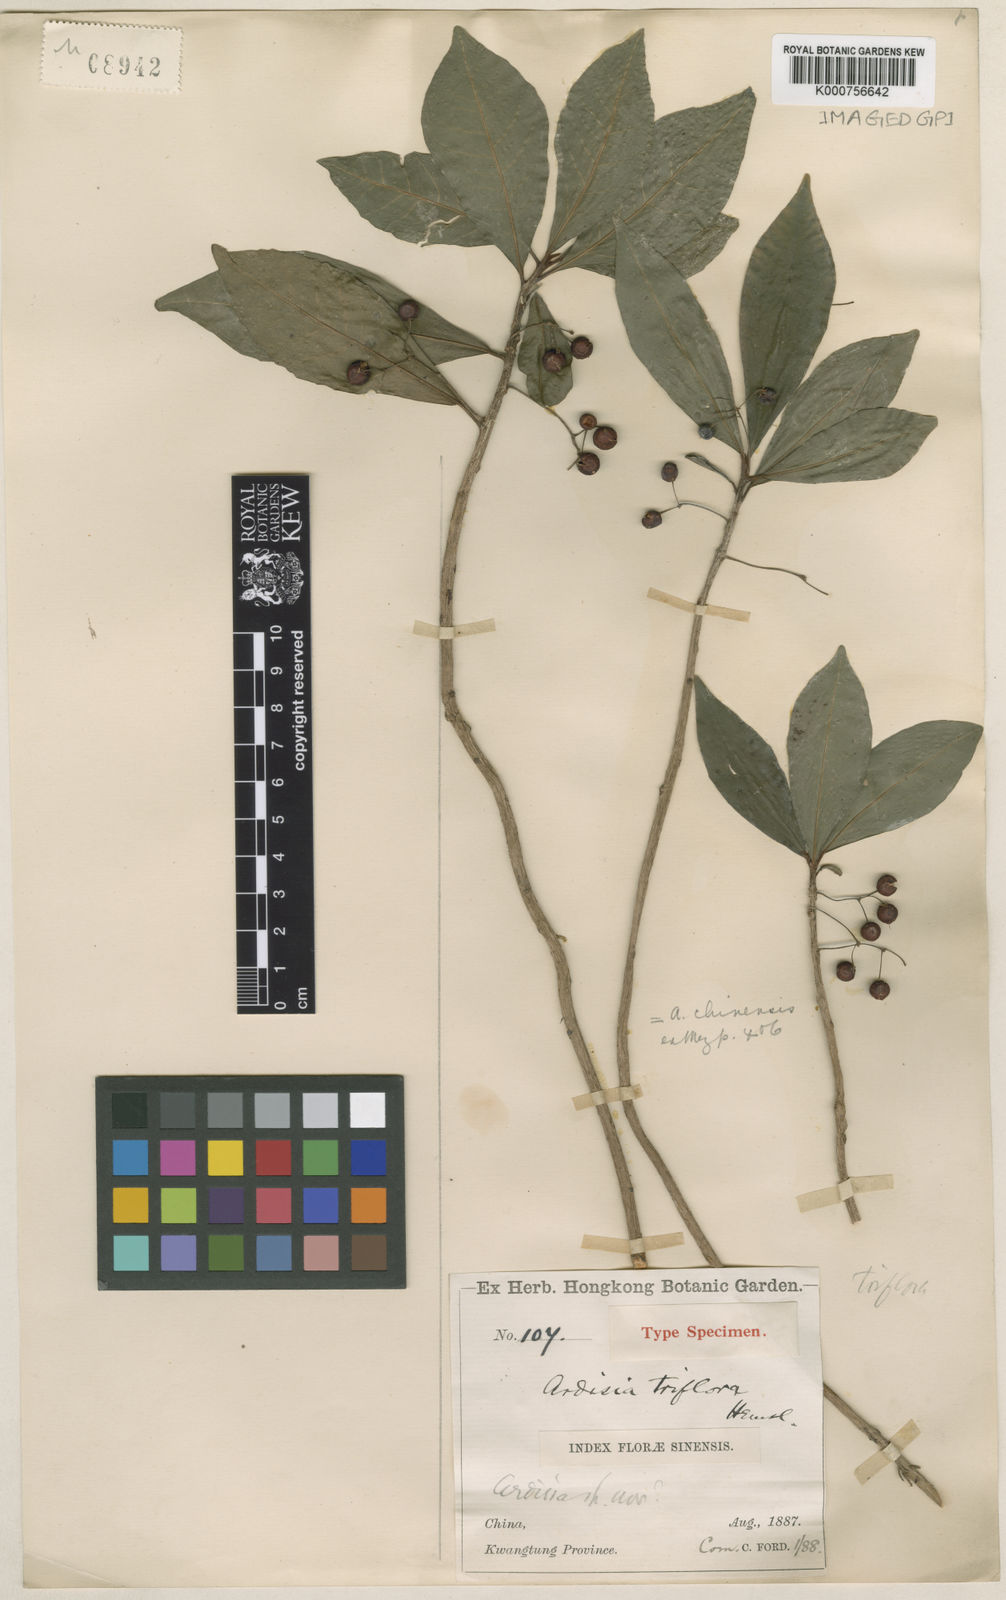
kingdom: Plantae
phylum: Tracheophyta
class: Magnoliopsida
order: Ericales
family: Primulaceae
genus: Ardisia
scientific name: Ardisia cymosa
